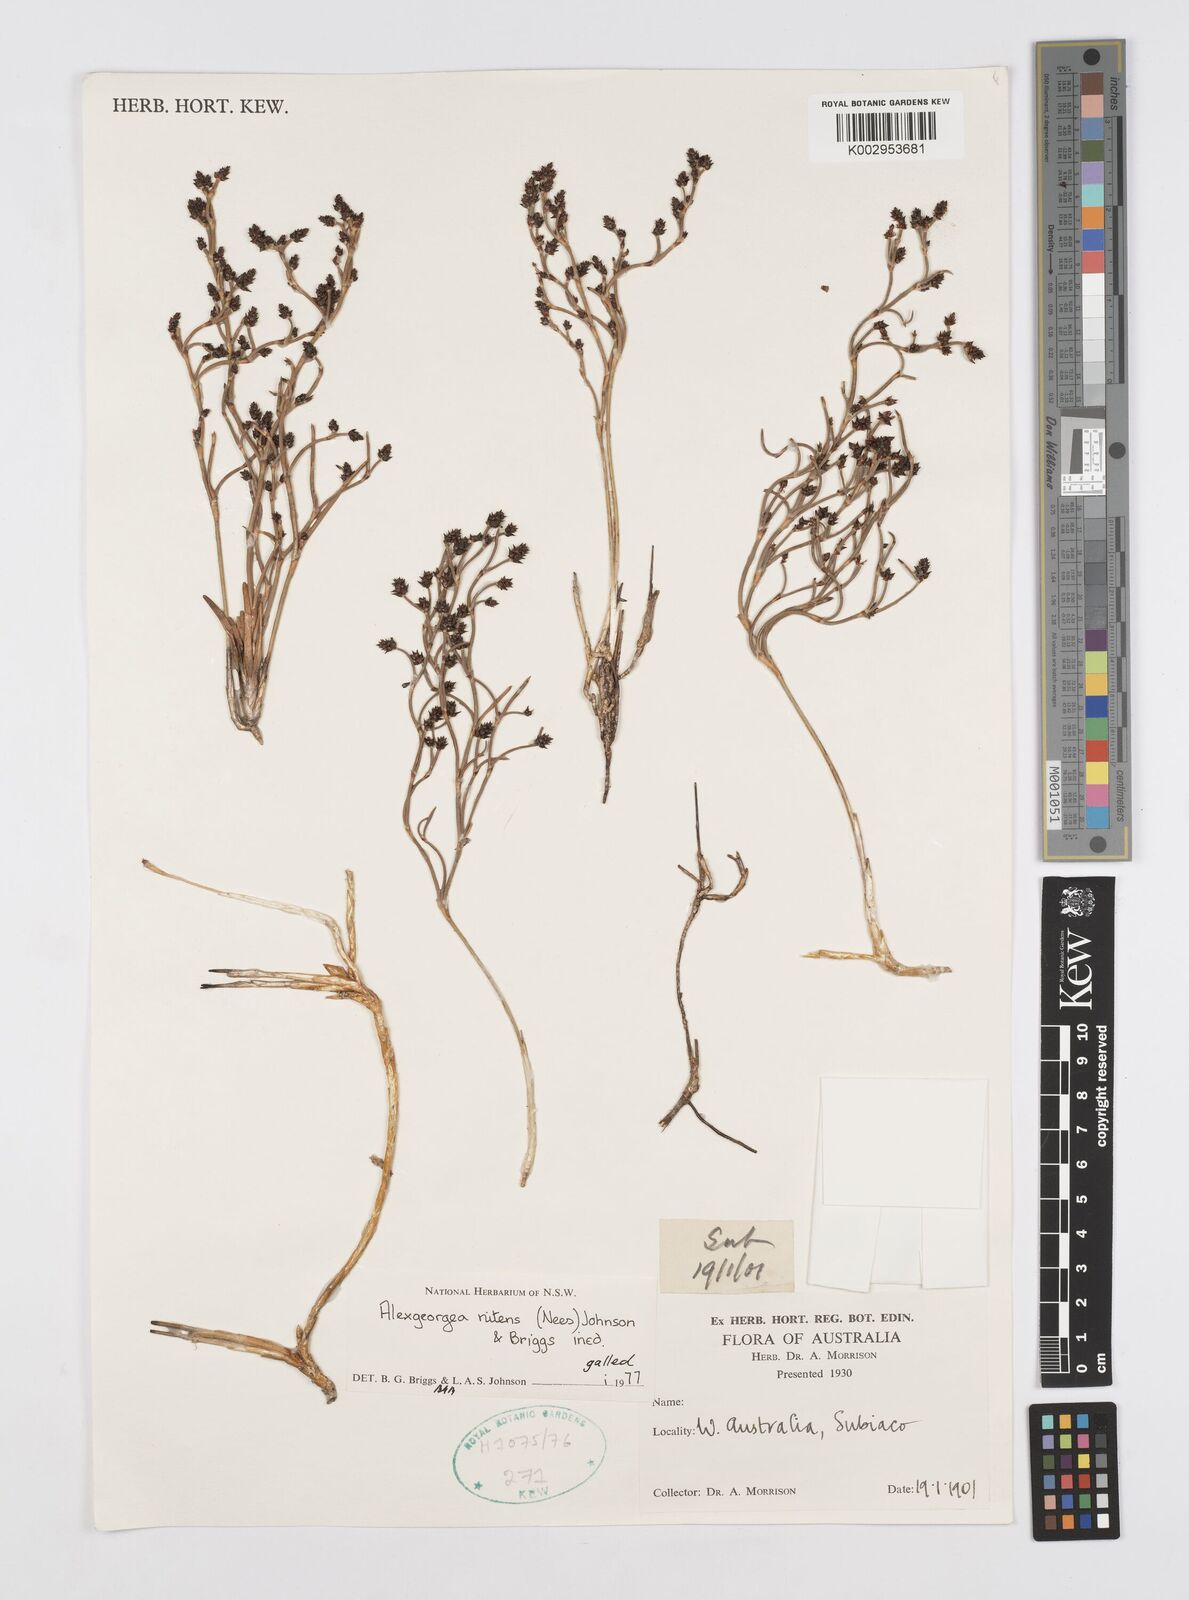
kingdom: Plantae
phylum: Tracheophyta
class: Liliopsida
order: Poales
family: Restionaceae
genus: Alexgeorgea
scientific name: Alexgeorgea nitens
